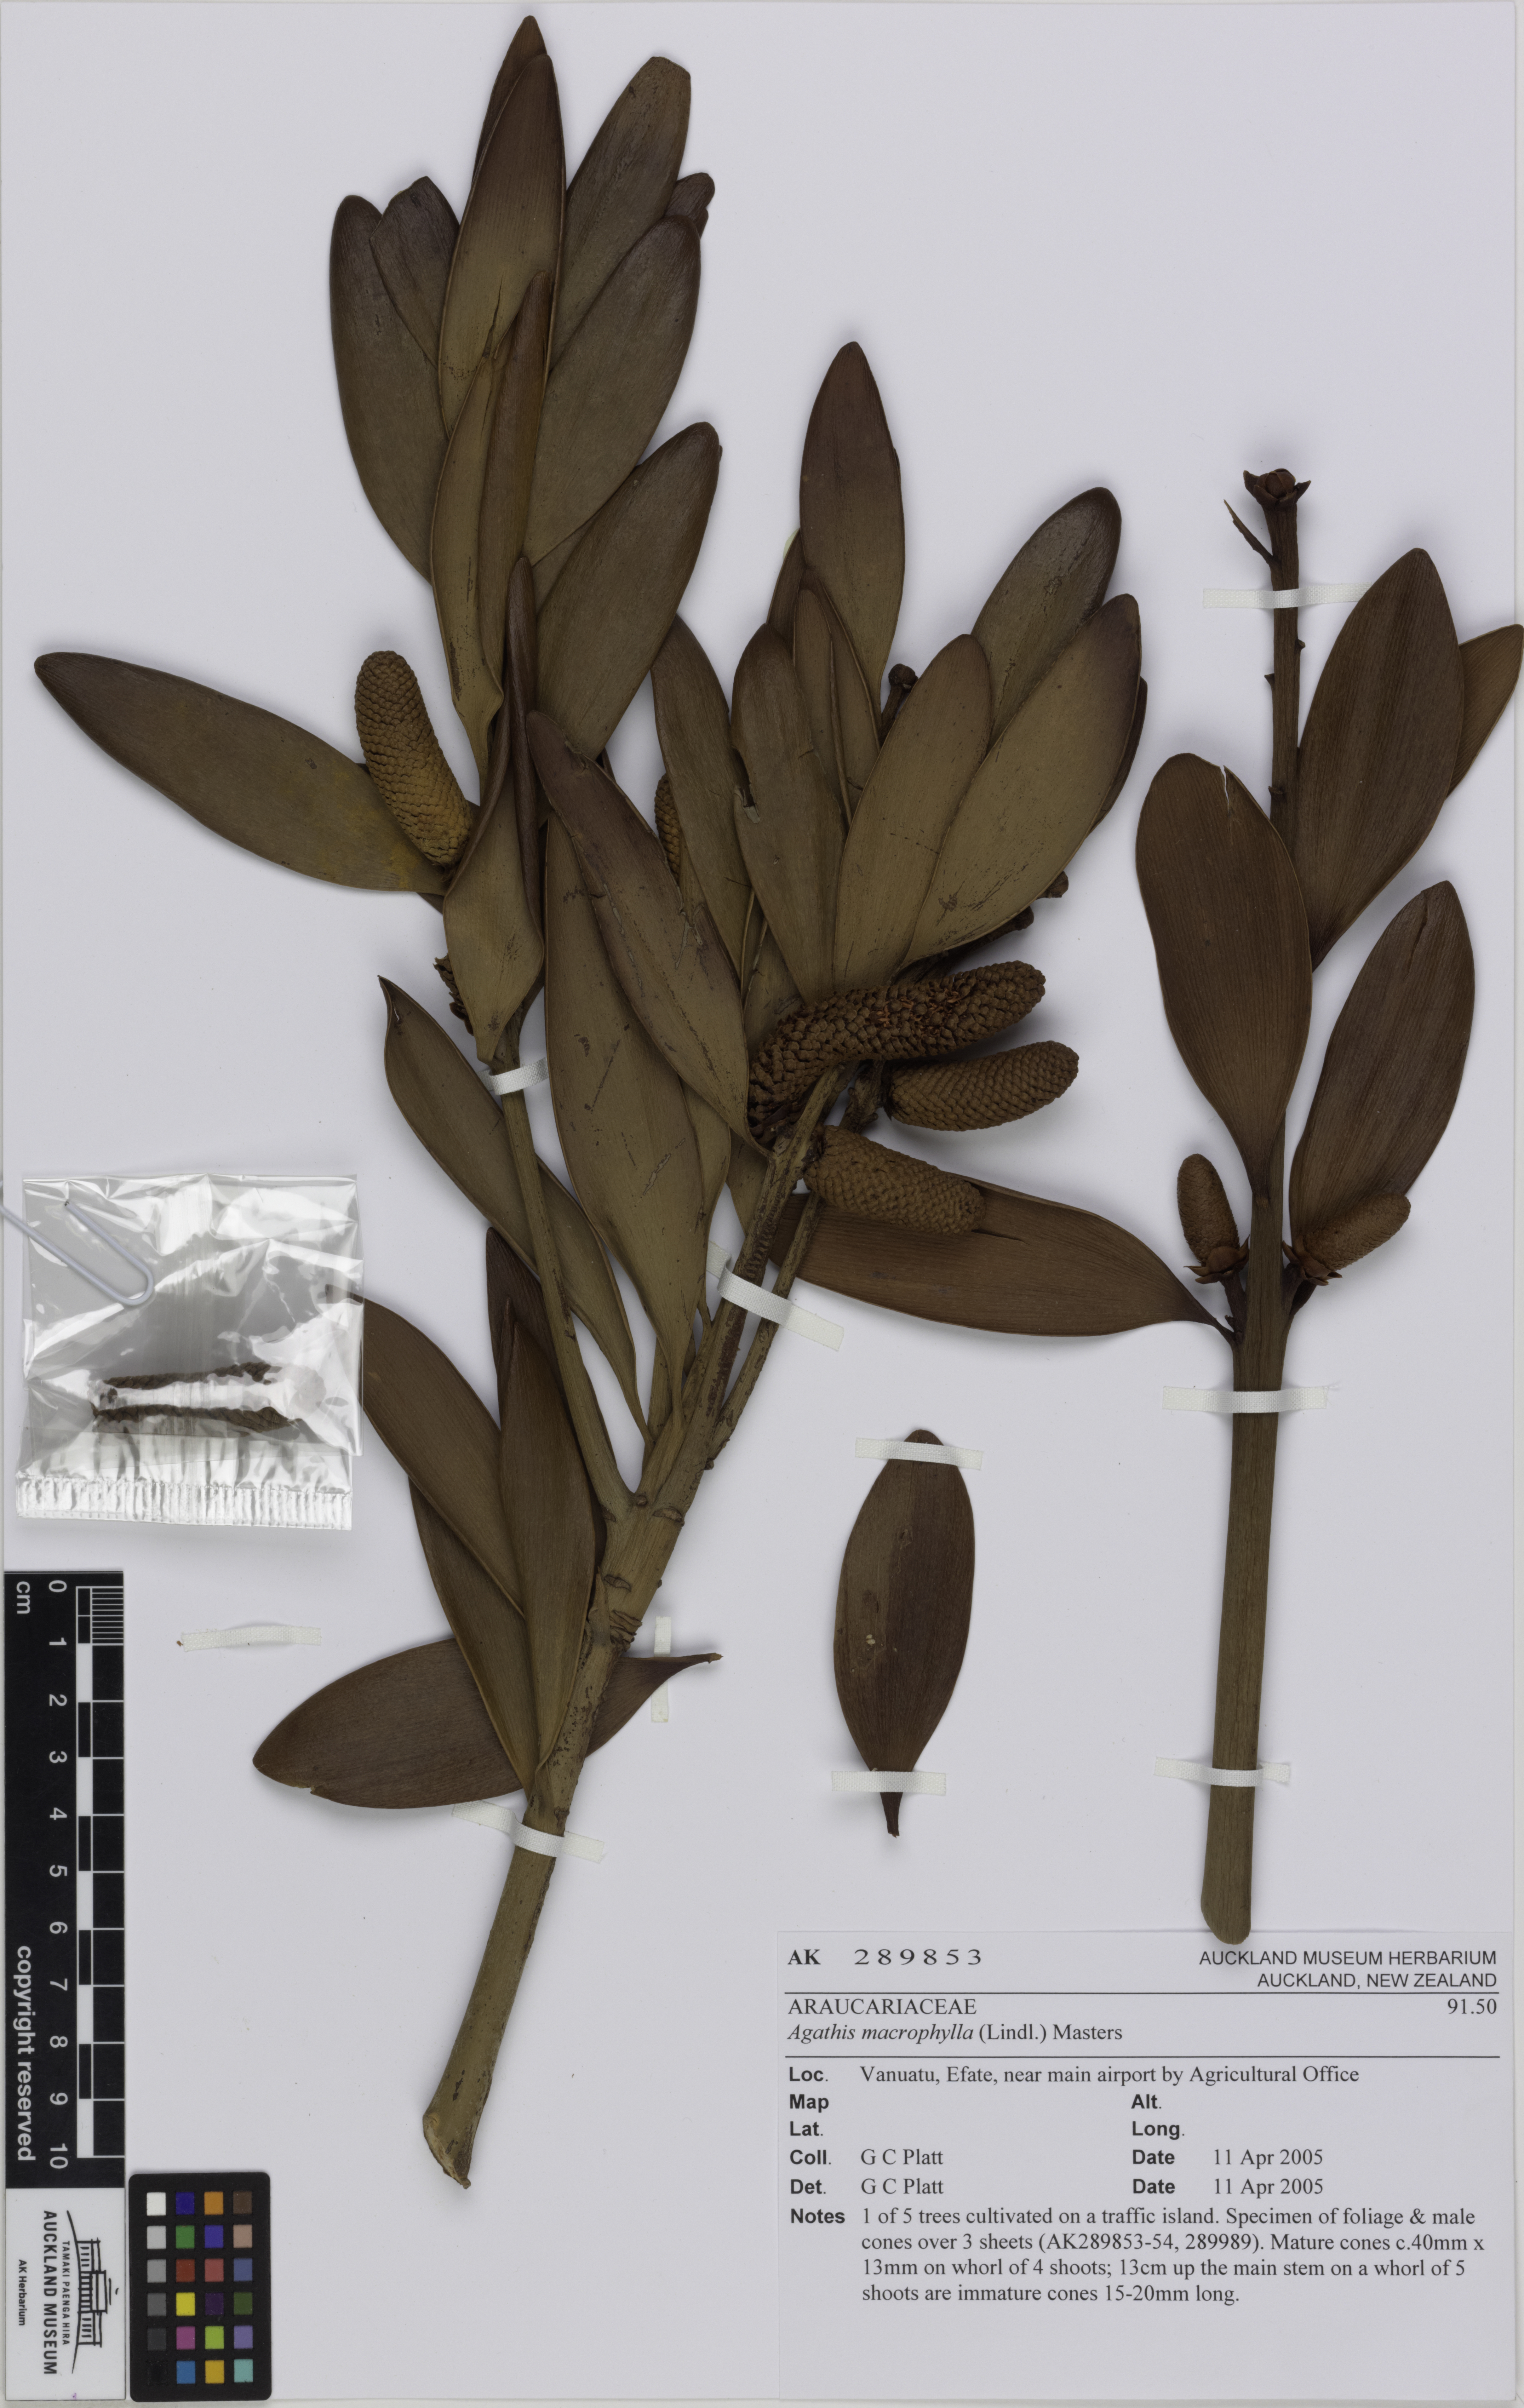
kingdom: Plantae
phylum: Tracheophyta
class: Pinopsida
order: Pinales
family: Araucariaceae
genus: Agathis
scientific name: Agathis macrophylla
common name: Fijian kauri pine
